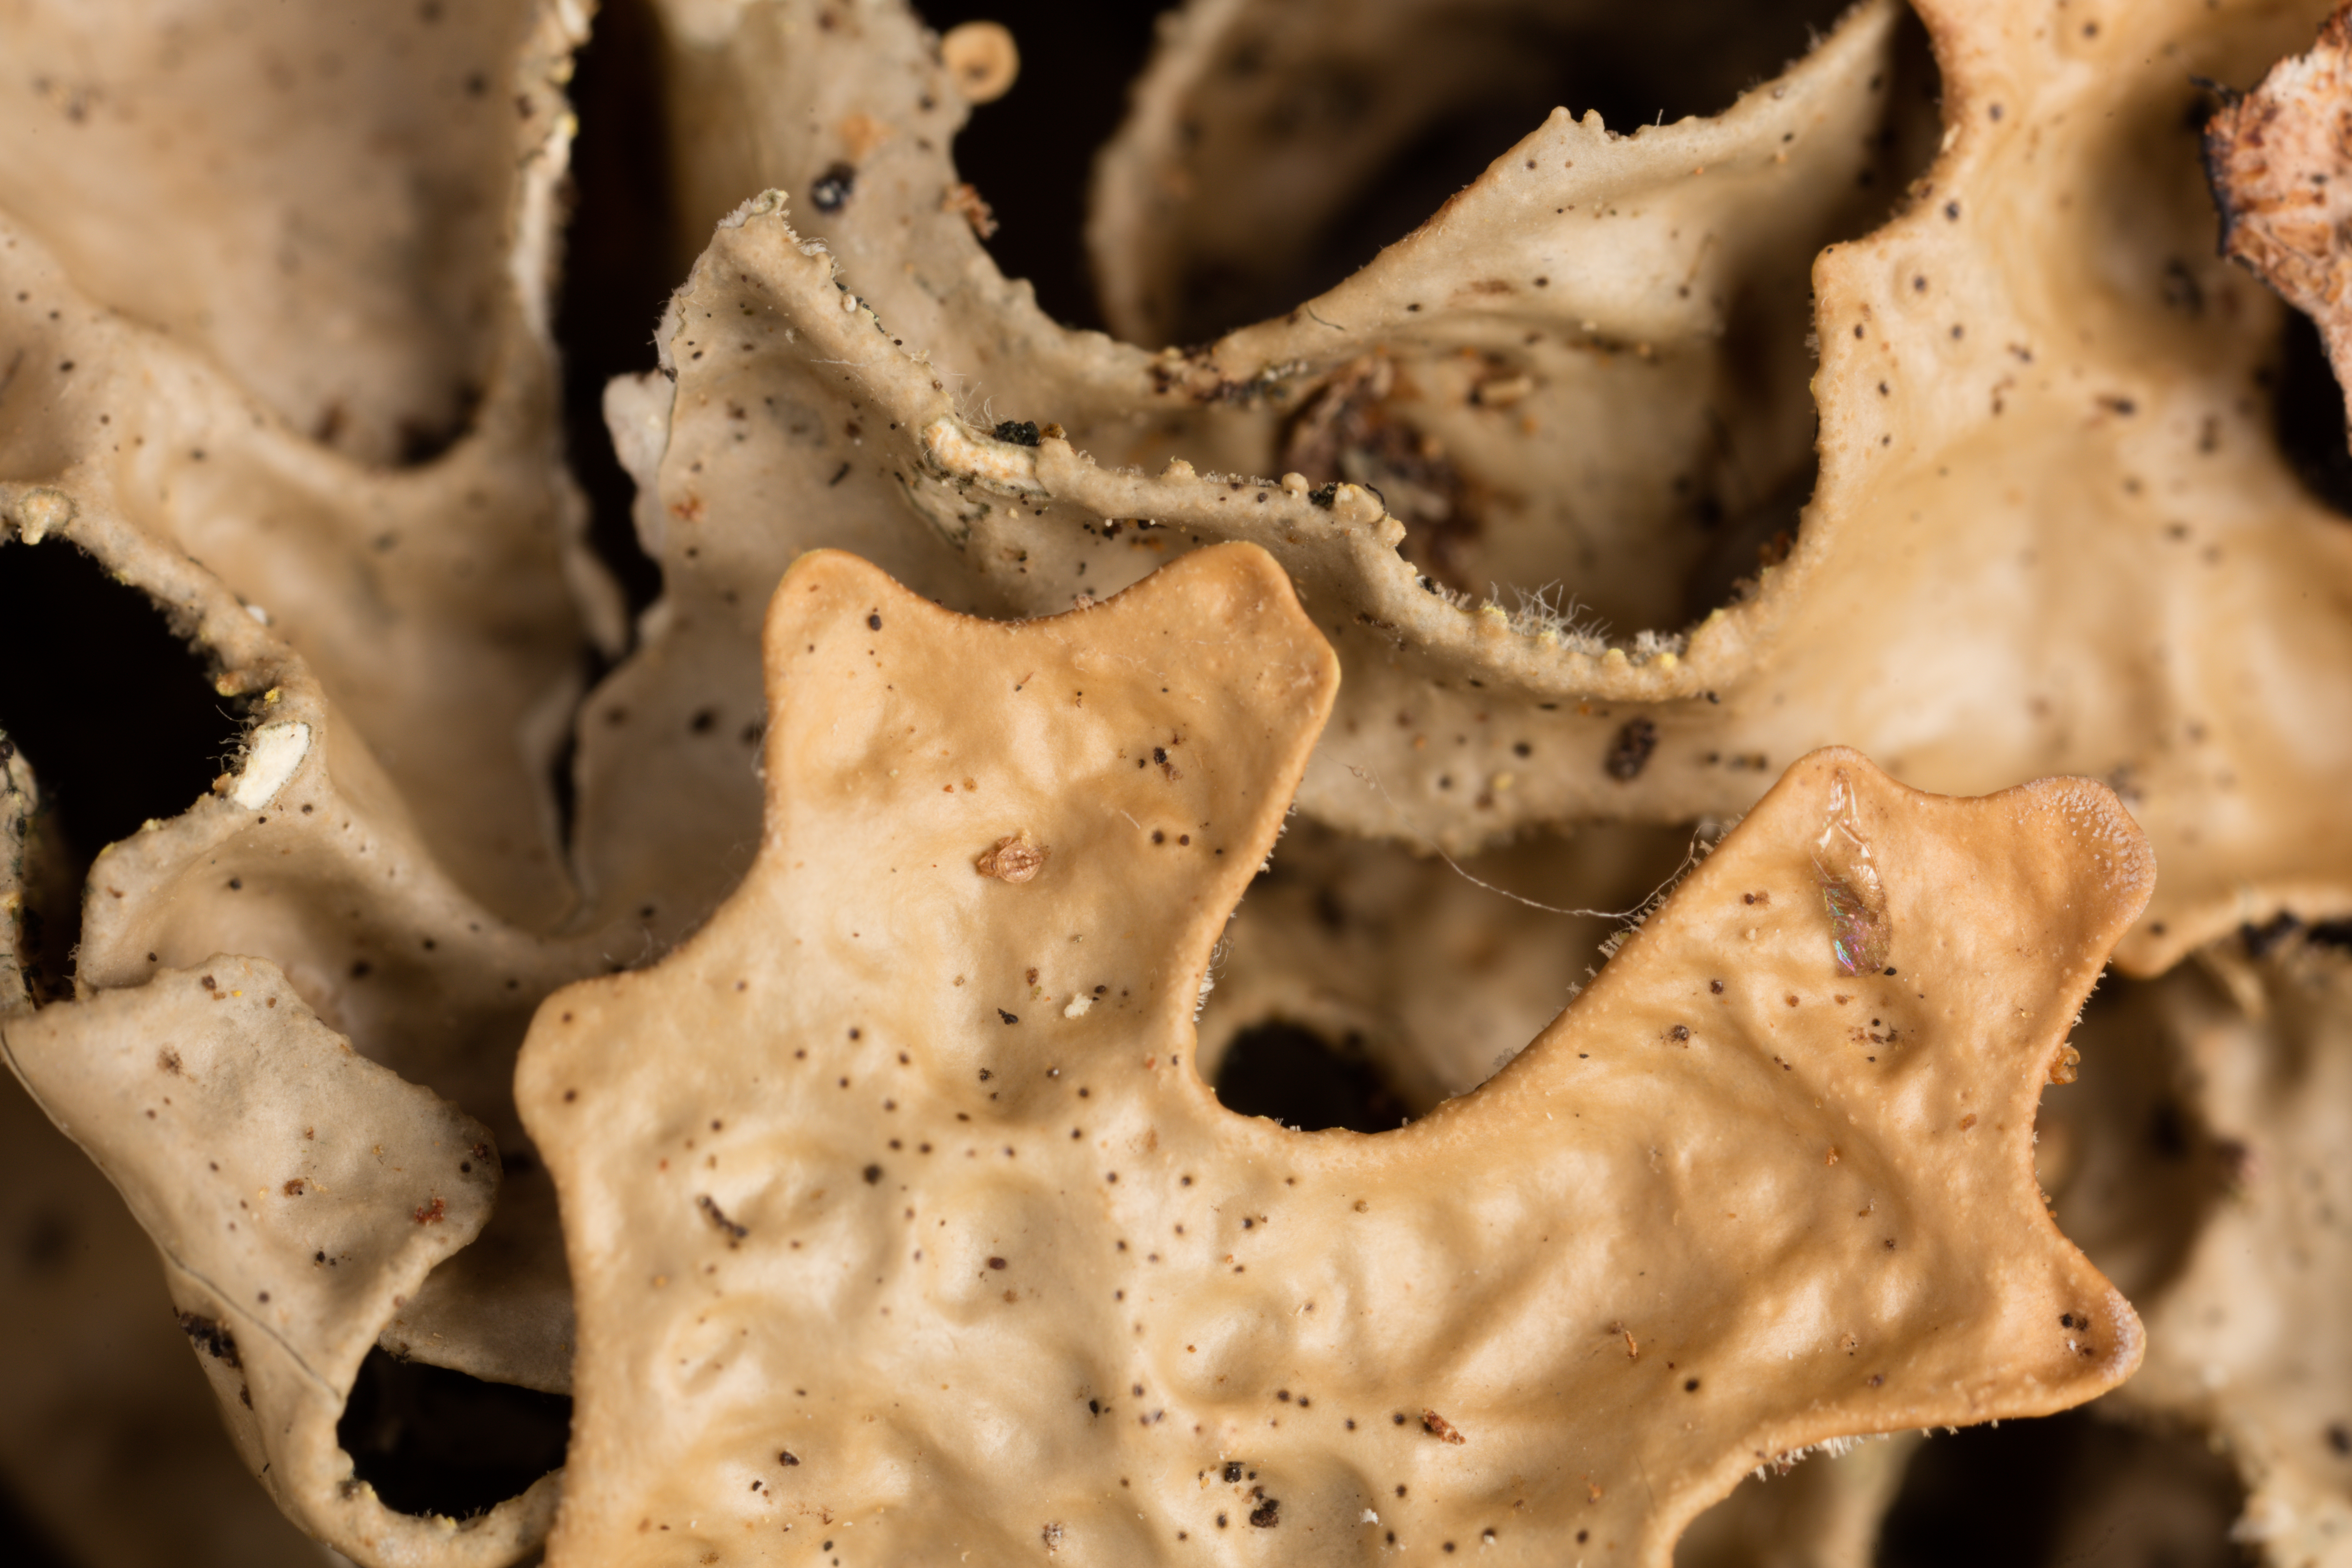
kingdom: Fungi
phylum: Ascomycota
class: Lecanoromycetes
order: Peltigerales
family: Lobariaceae
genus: Pseudocyphellaria
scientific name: Pseudocyphellaria carpoloma
